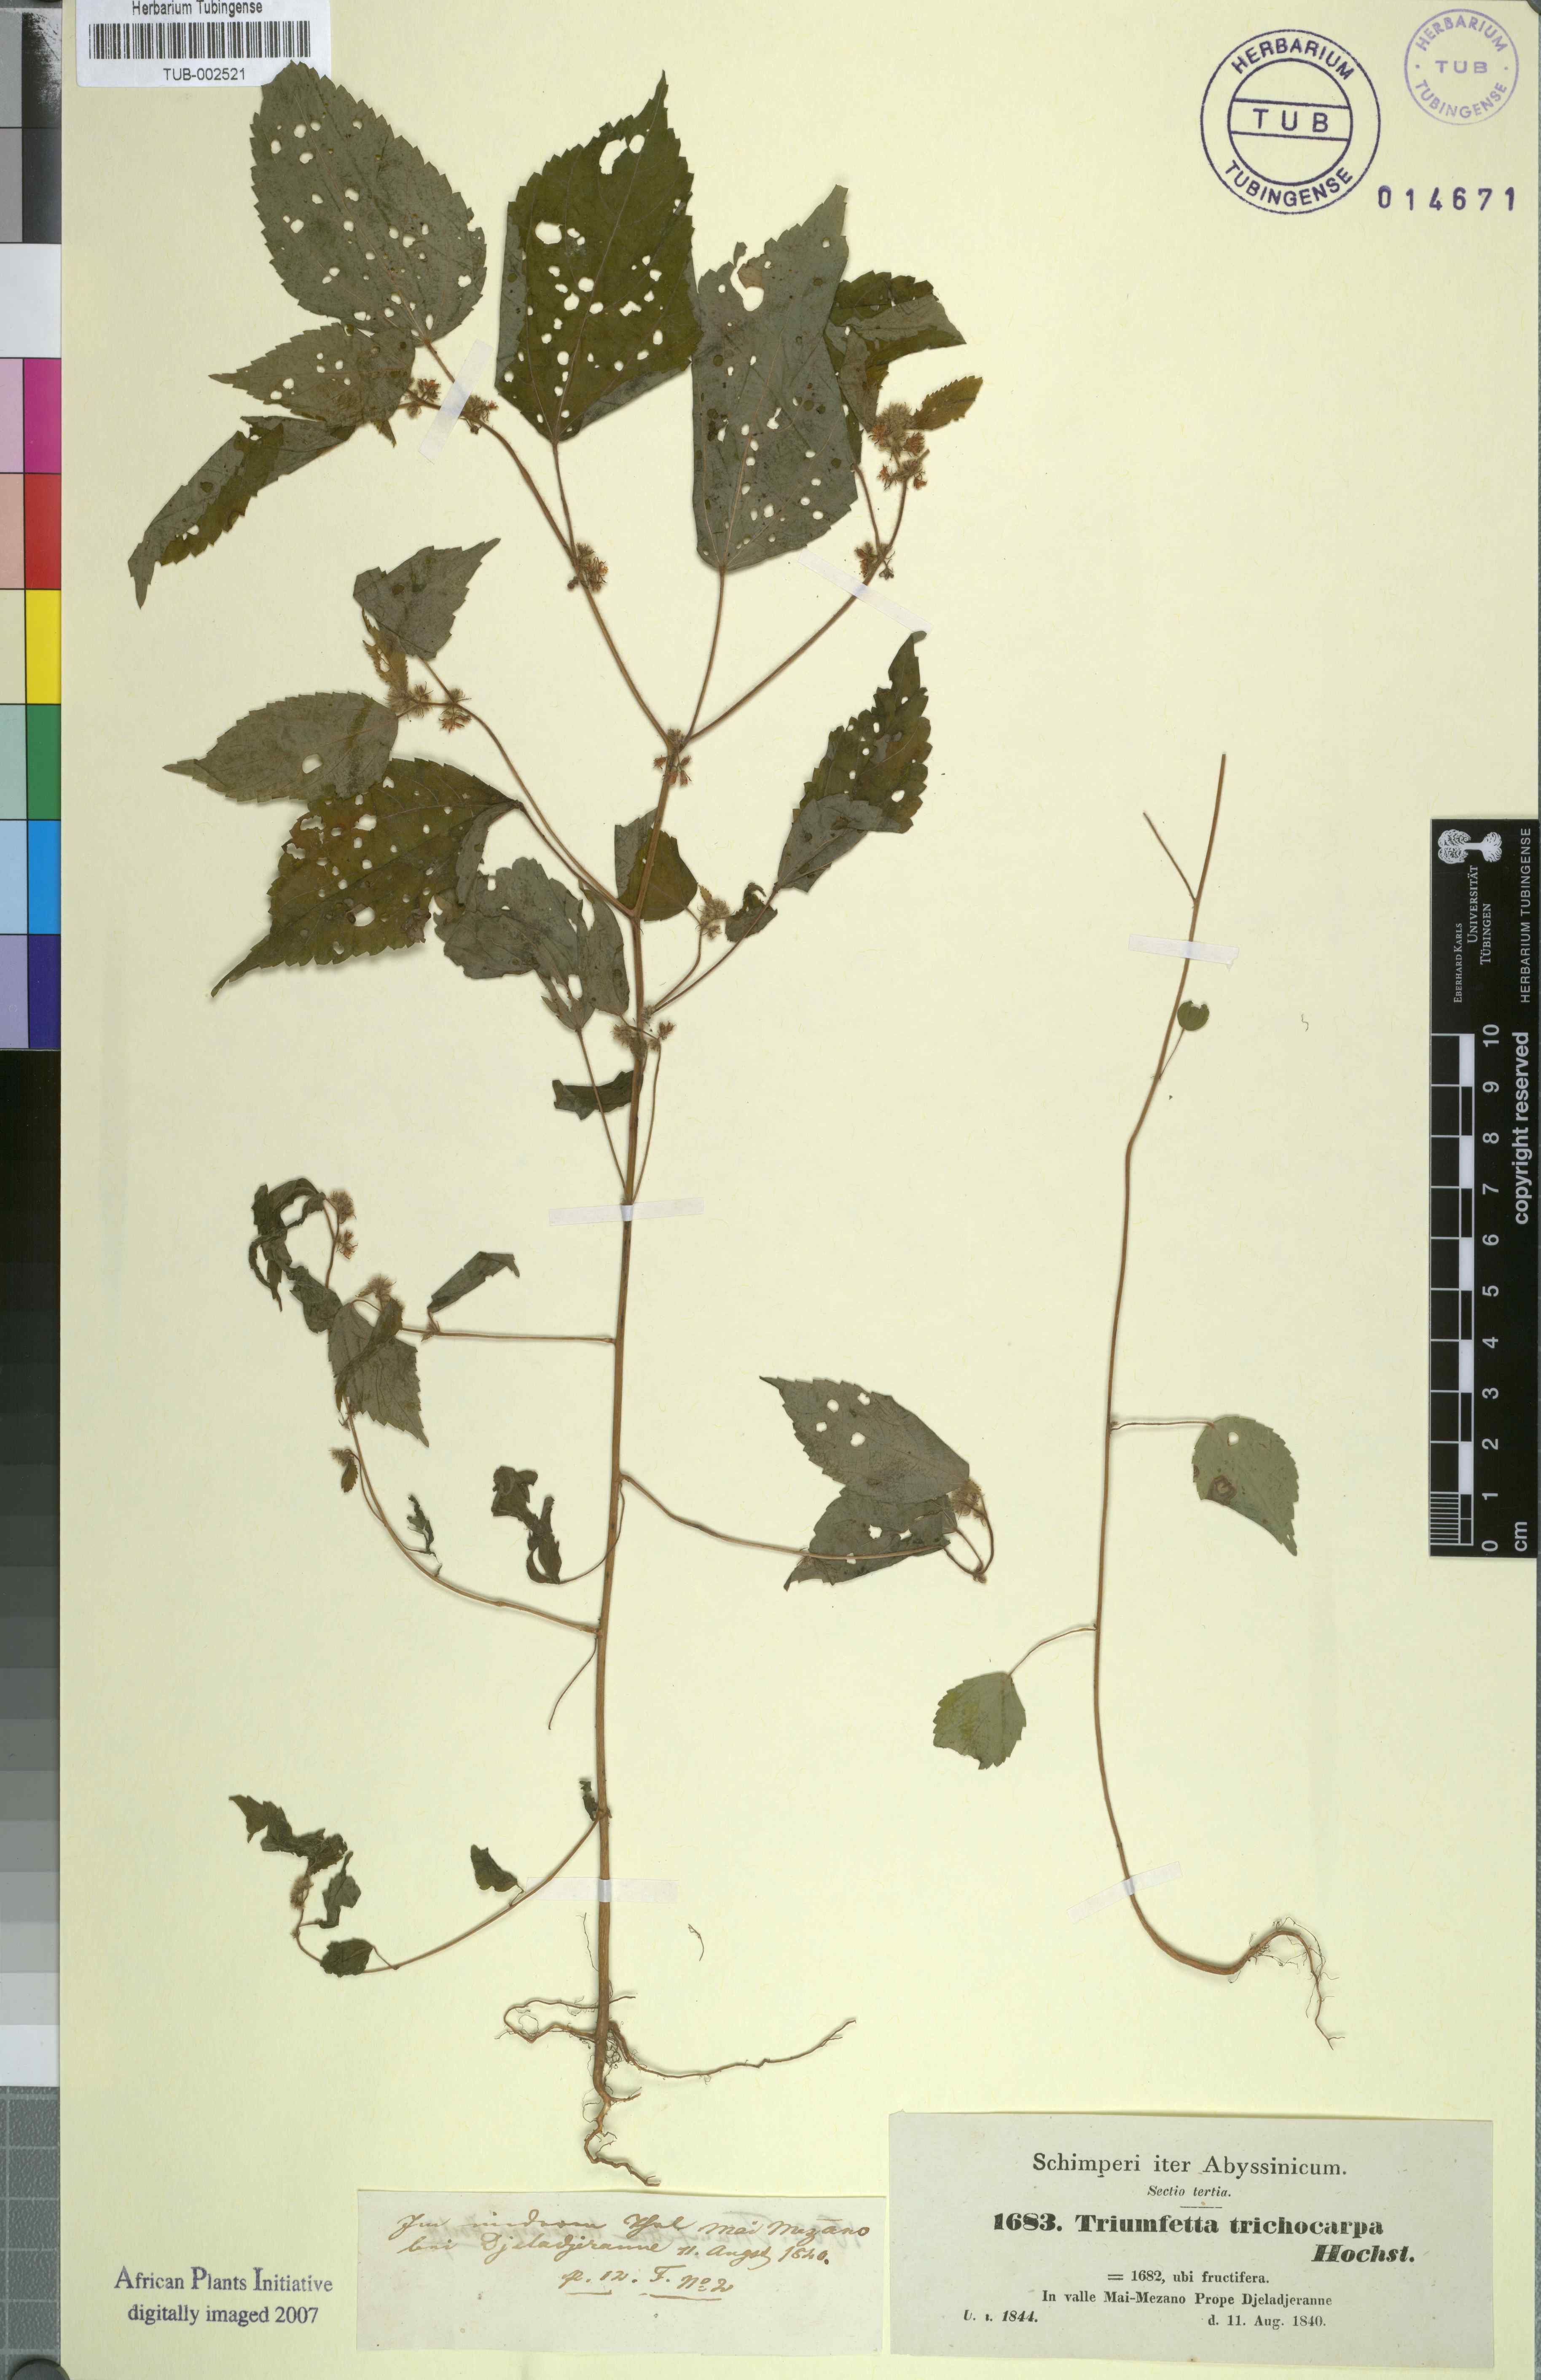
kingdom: Plantae
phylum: Tracheophyta
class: Magnoliopsida
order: Malvales
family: Malvaceae
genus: Triumfetta
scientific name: Triumfetta trichocarpa
